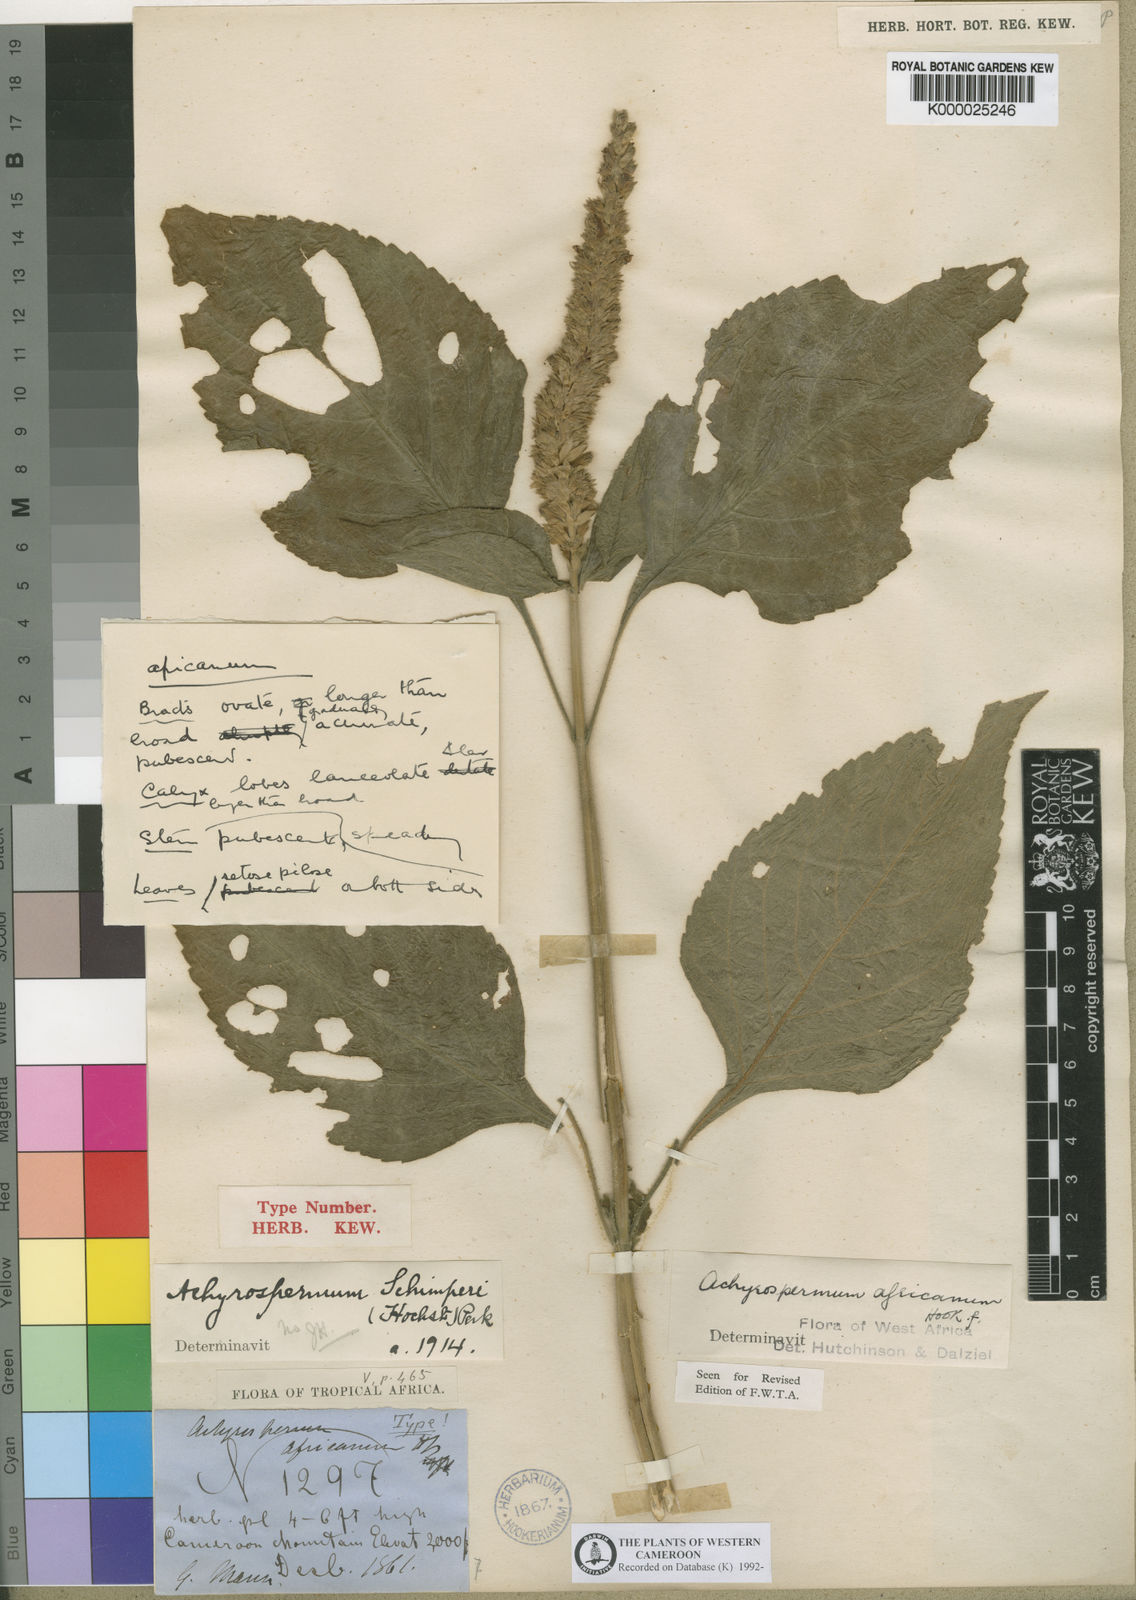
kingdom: Plantae
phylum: Tracheophyta
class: Magnoliopsida
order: Lamiales
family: Lamiaceae
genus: Achyrospermum
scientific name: Achyrospermum africanum
